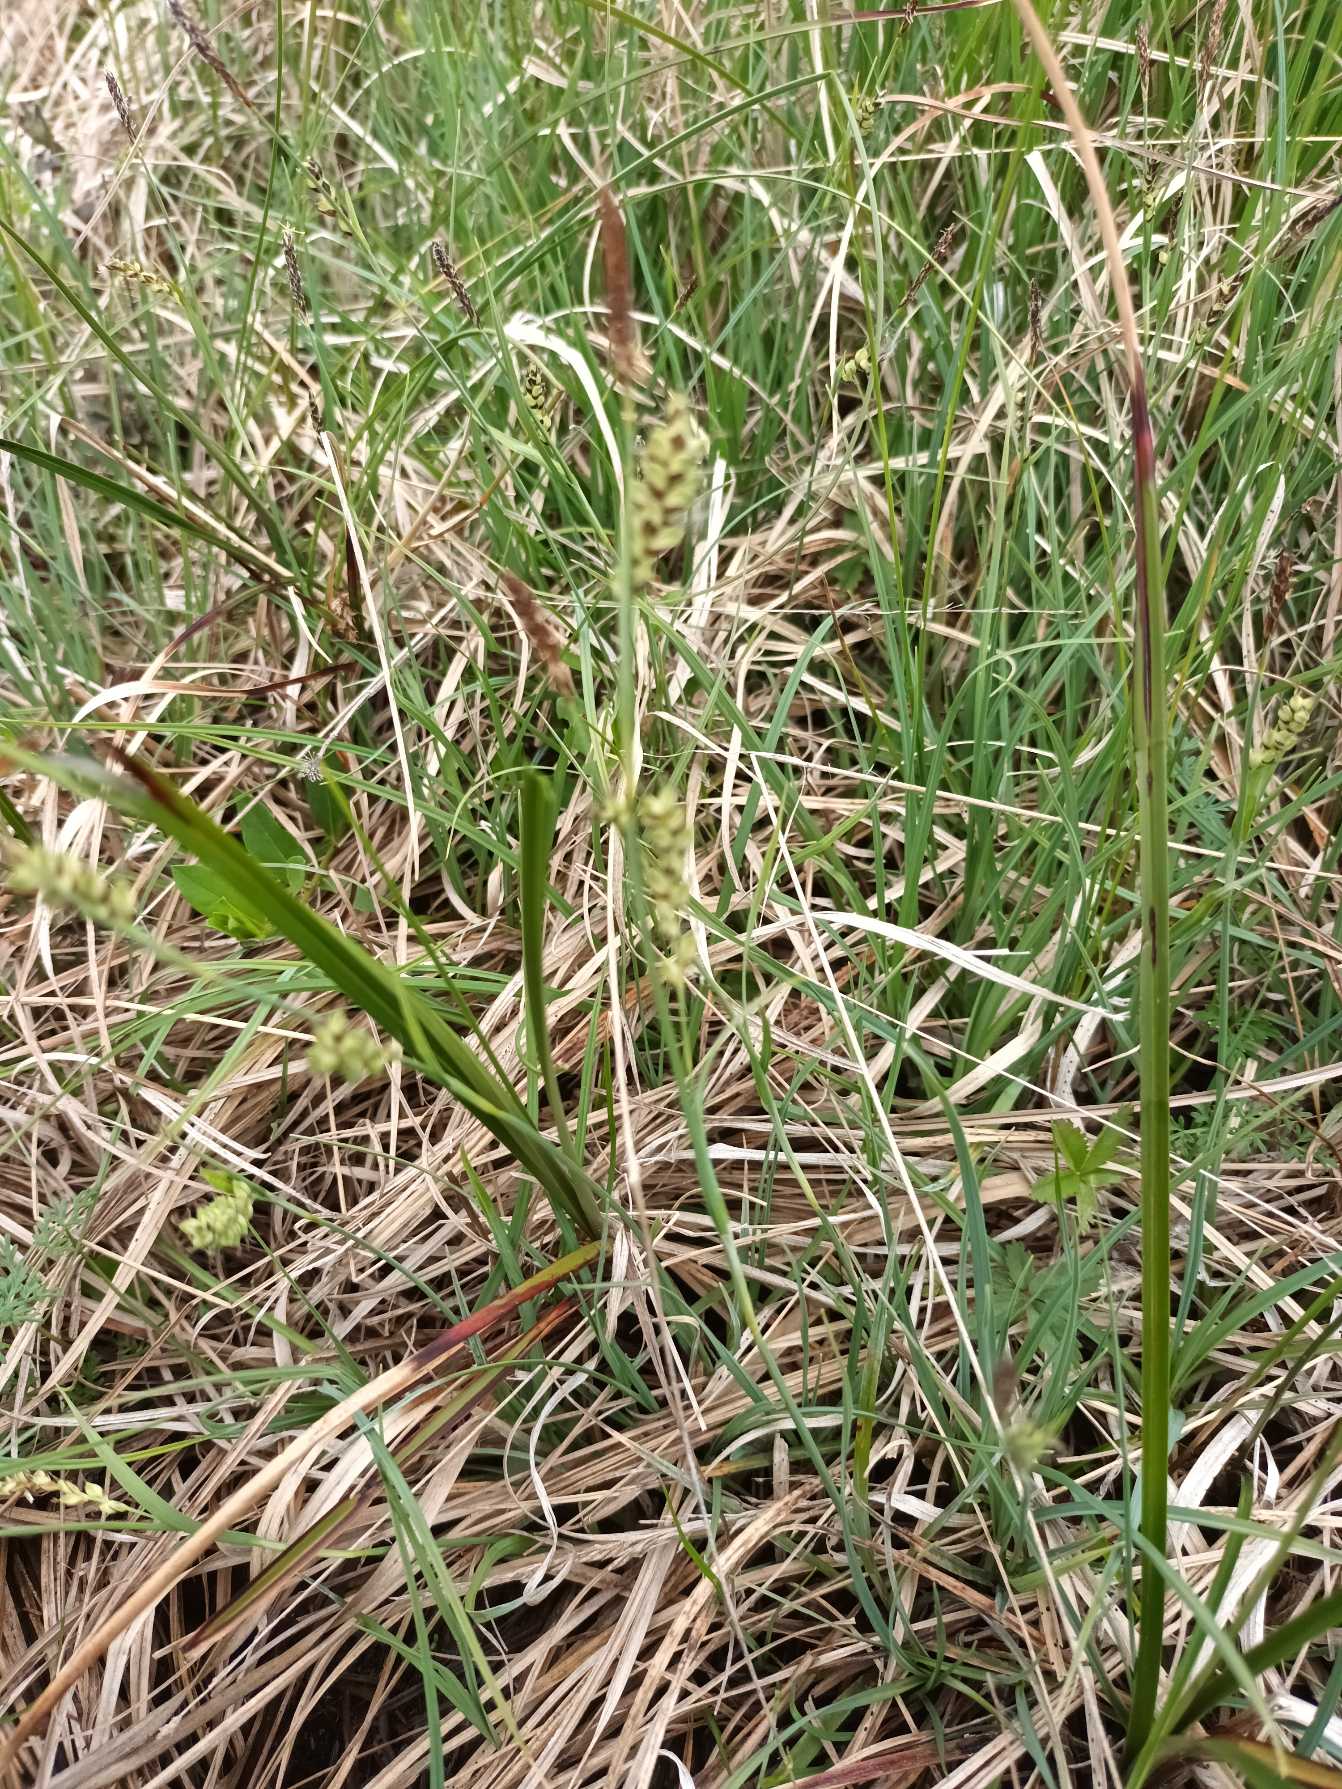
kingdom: Plantae
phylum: Tracheophyta
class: Liliopsida
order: Poales
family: Cyperaceae
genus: Carex
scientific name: Carex panicea
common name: Hirse-star
